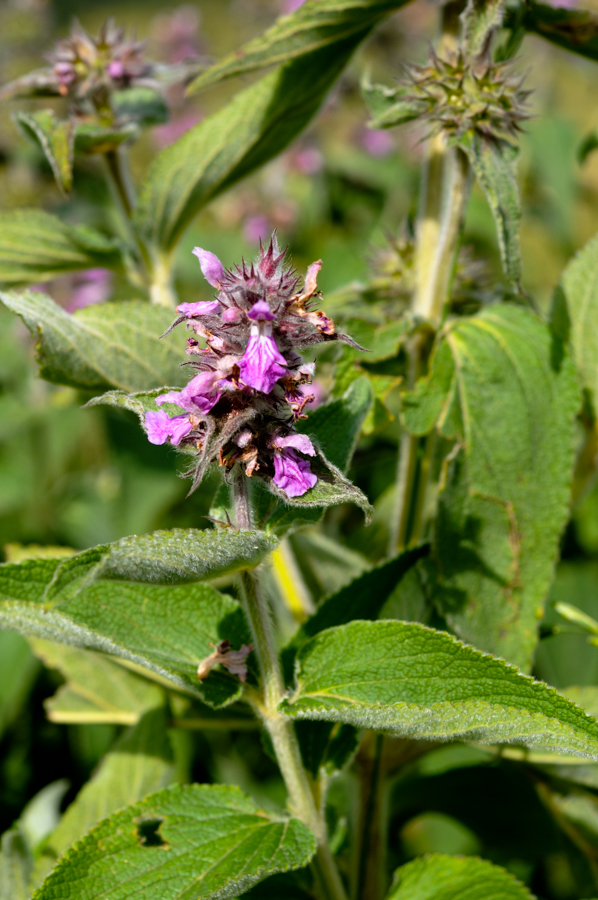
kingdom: Plantae
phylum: Tracheophyta
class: Magnoliopsida
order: Boraginales
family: Boraginaceae
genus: Symphytum
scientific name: Symphytum asperum
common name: Prickly comfrey
